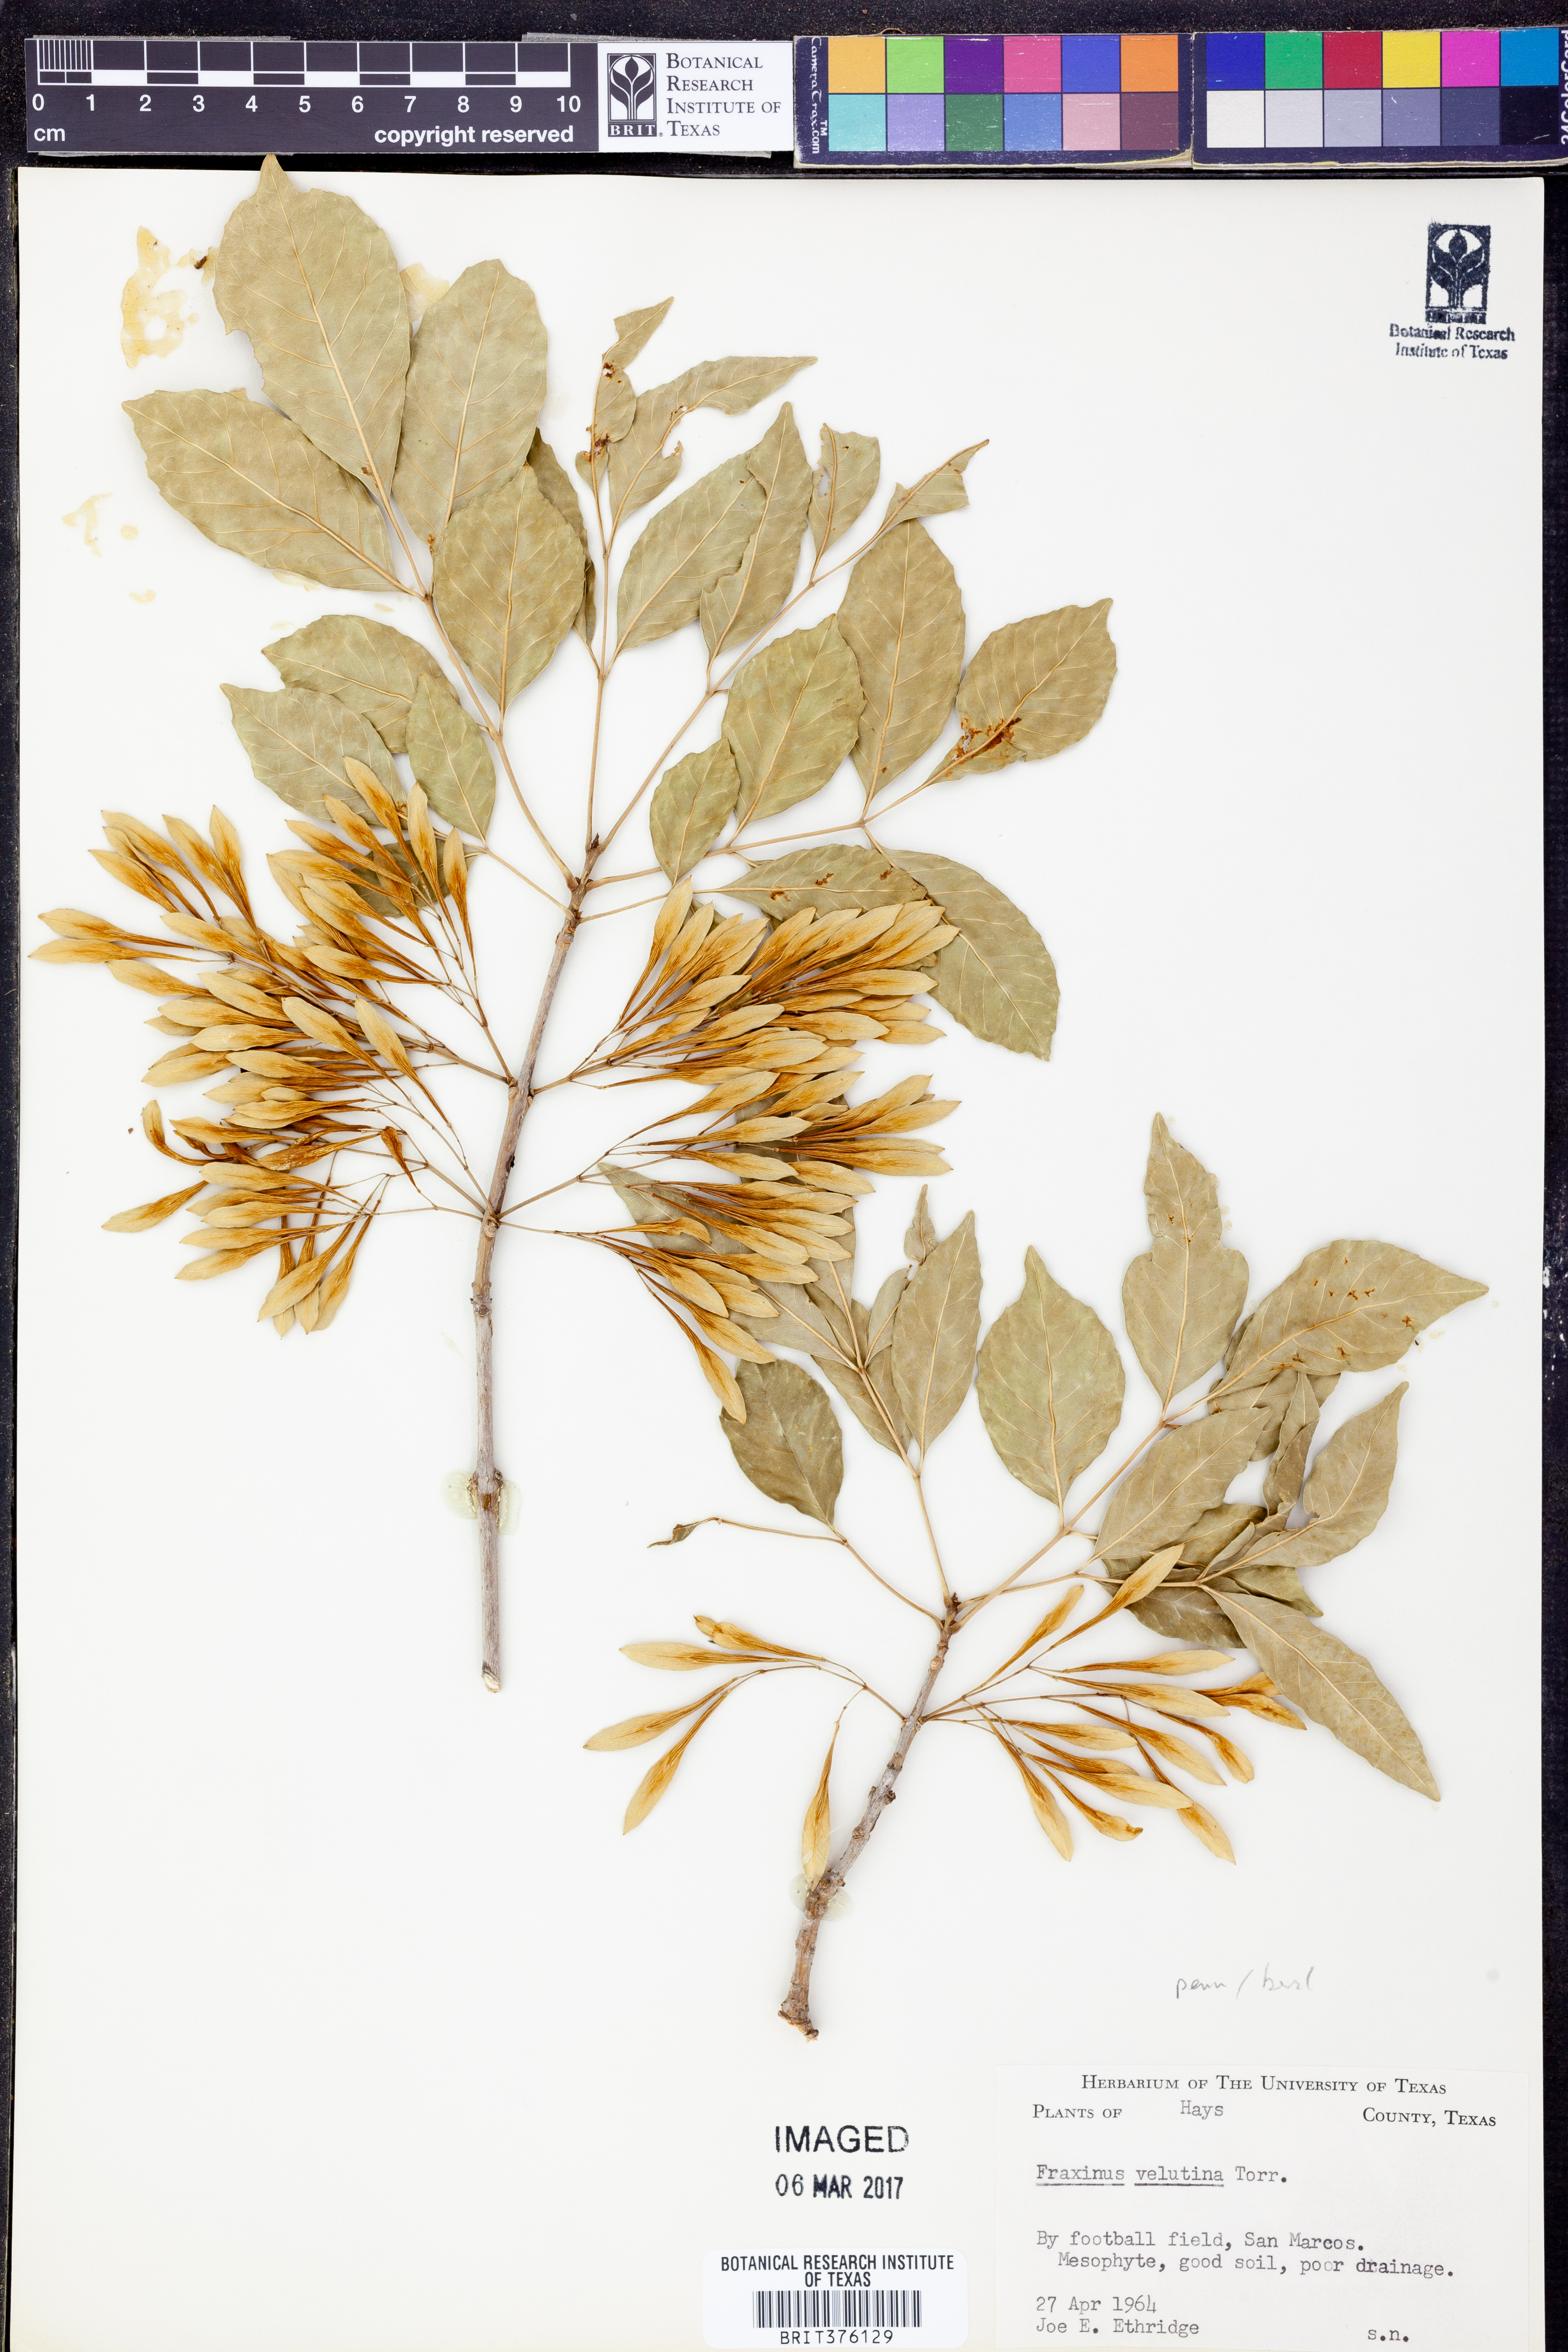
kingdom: Plantae
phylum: Tracheophyta
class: Magnoliopsida
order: Lamiales
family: Oleaceae
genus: Fraxinus
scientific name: Fraxinus velutina
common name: Arizon ash
